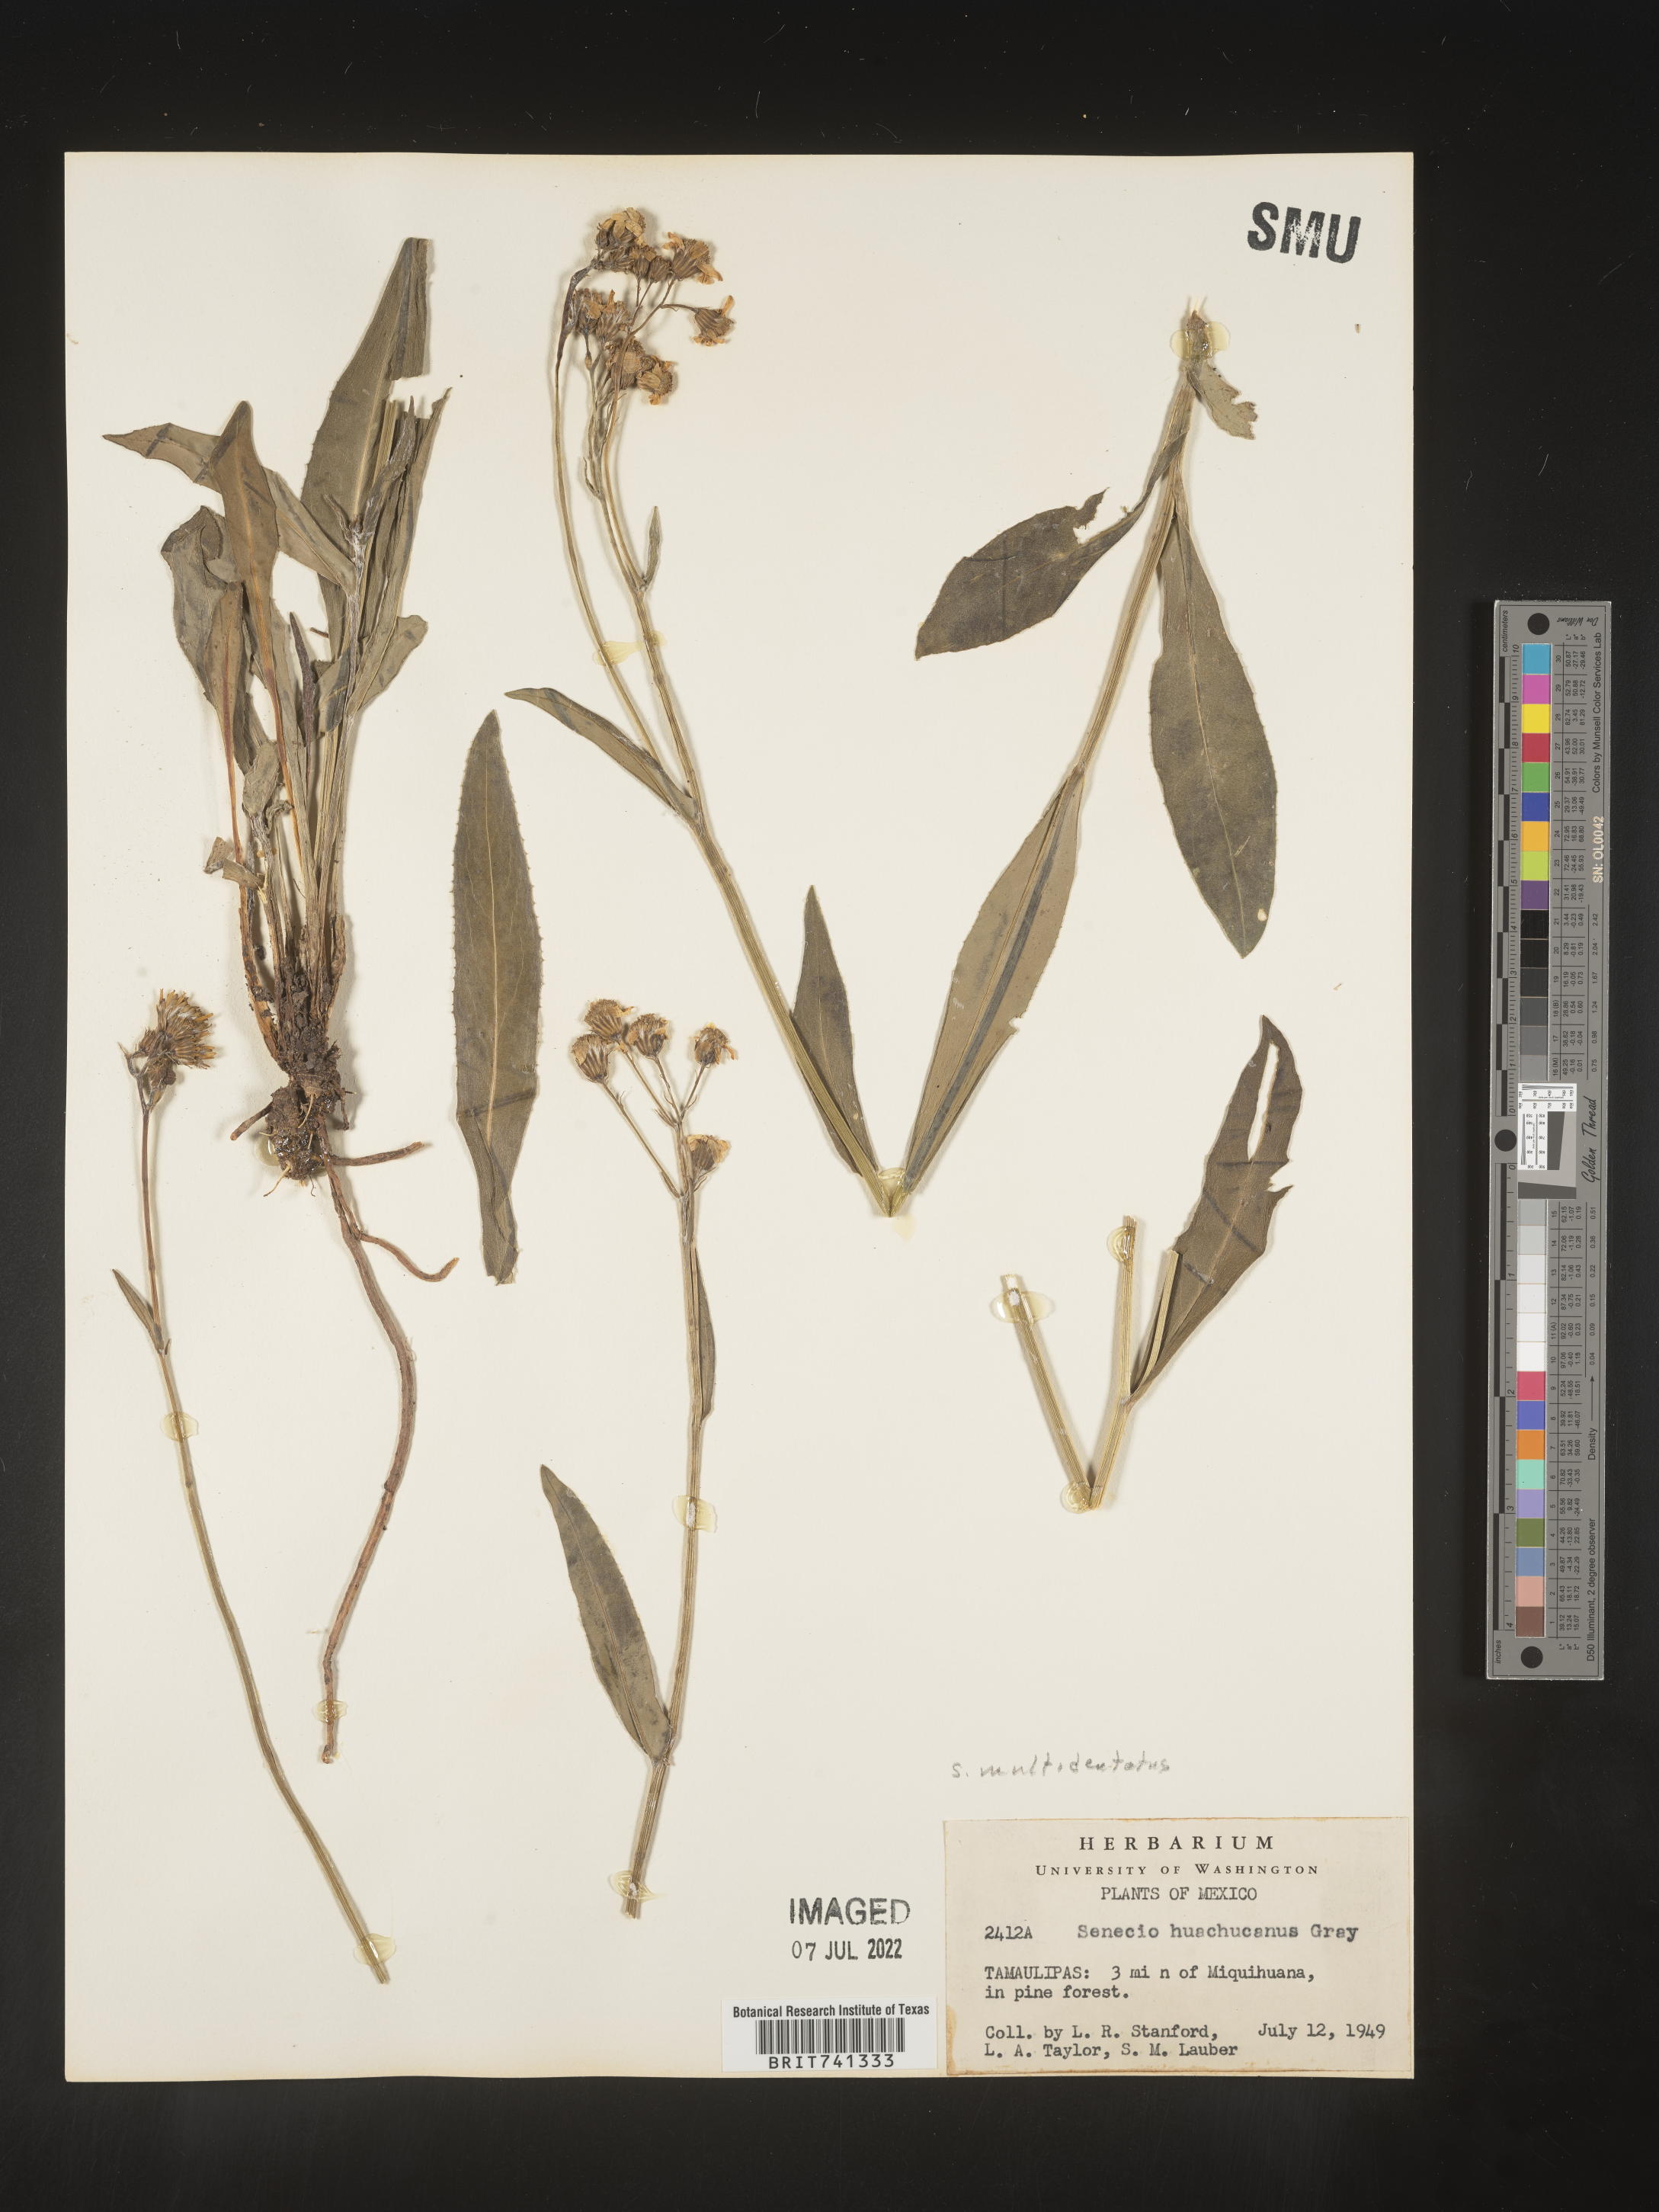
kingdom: Plantae
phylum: Tracheophyta
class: Magnoliopsida
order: Asterales
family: Asteraceae
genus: Senecio
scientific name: Senecio
